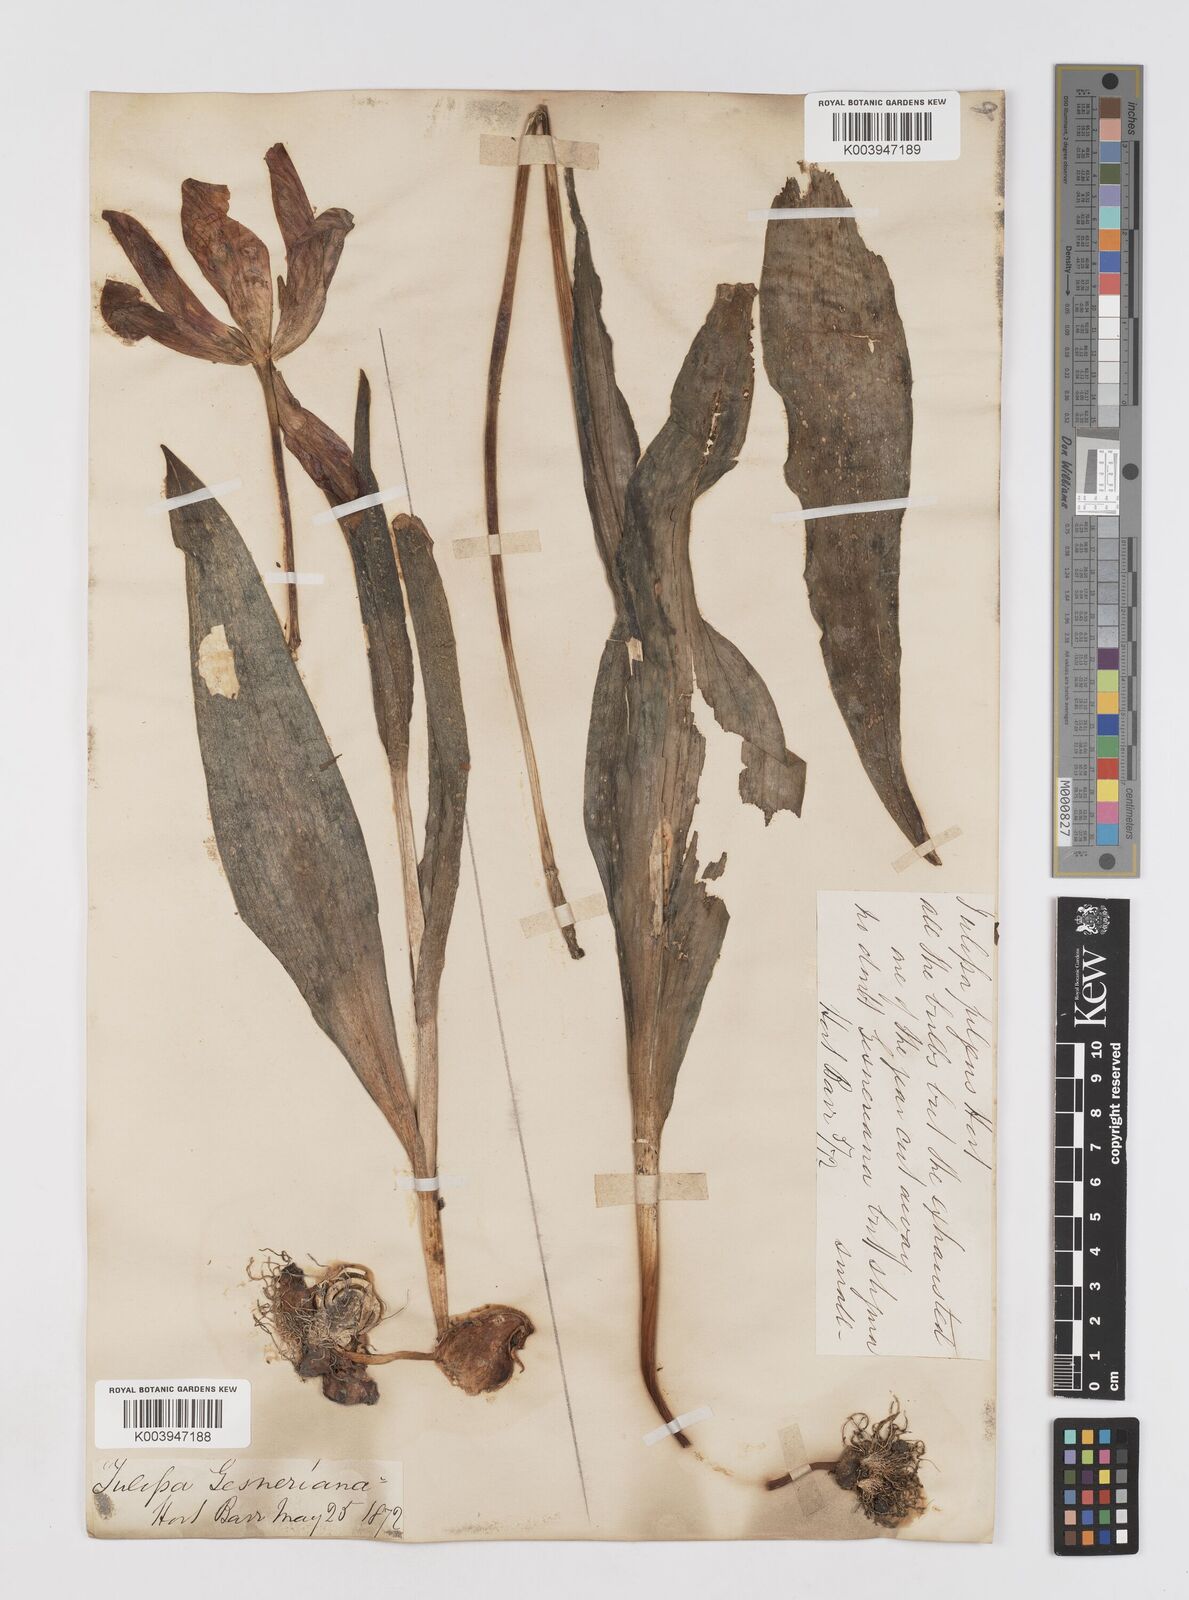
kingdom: Plantae
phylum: Tracheophyta
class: Liliopsida
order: Liliales
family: Liliaceae
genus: Tulipa
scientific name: Tulipa gesneriana
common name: Garden tulip
